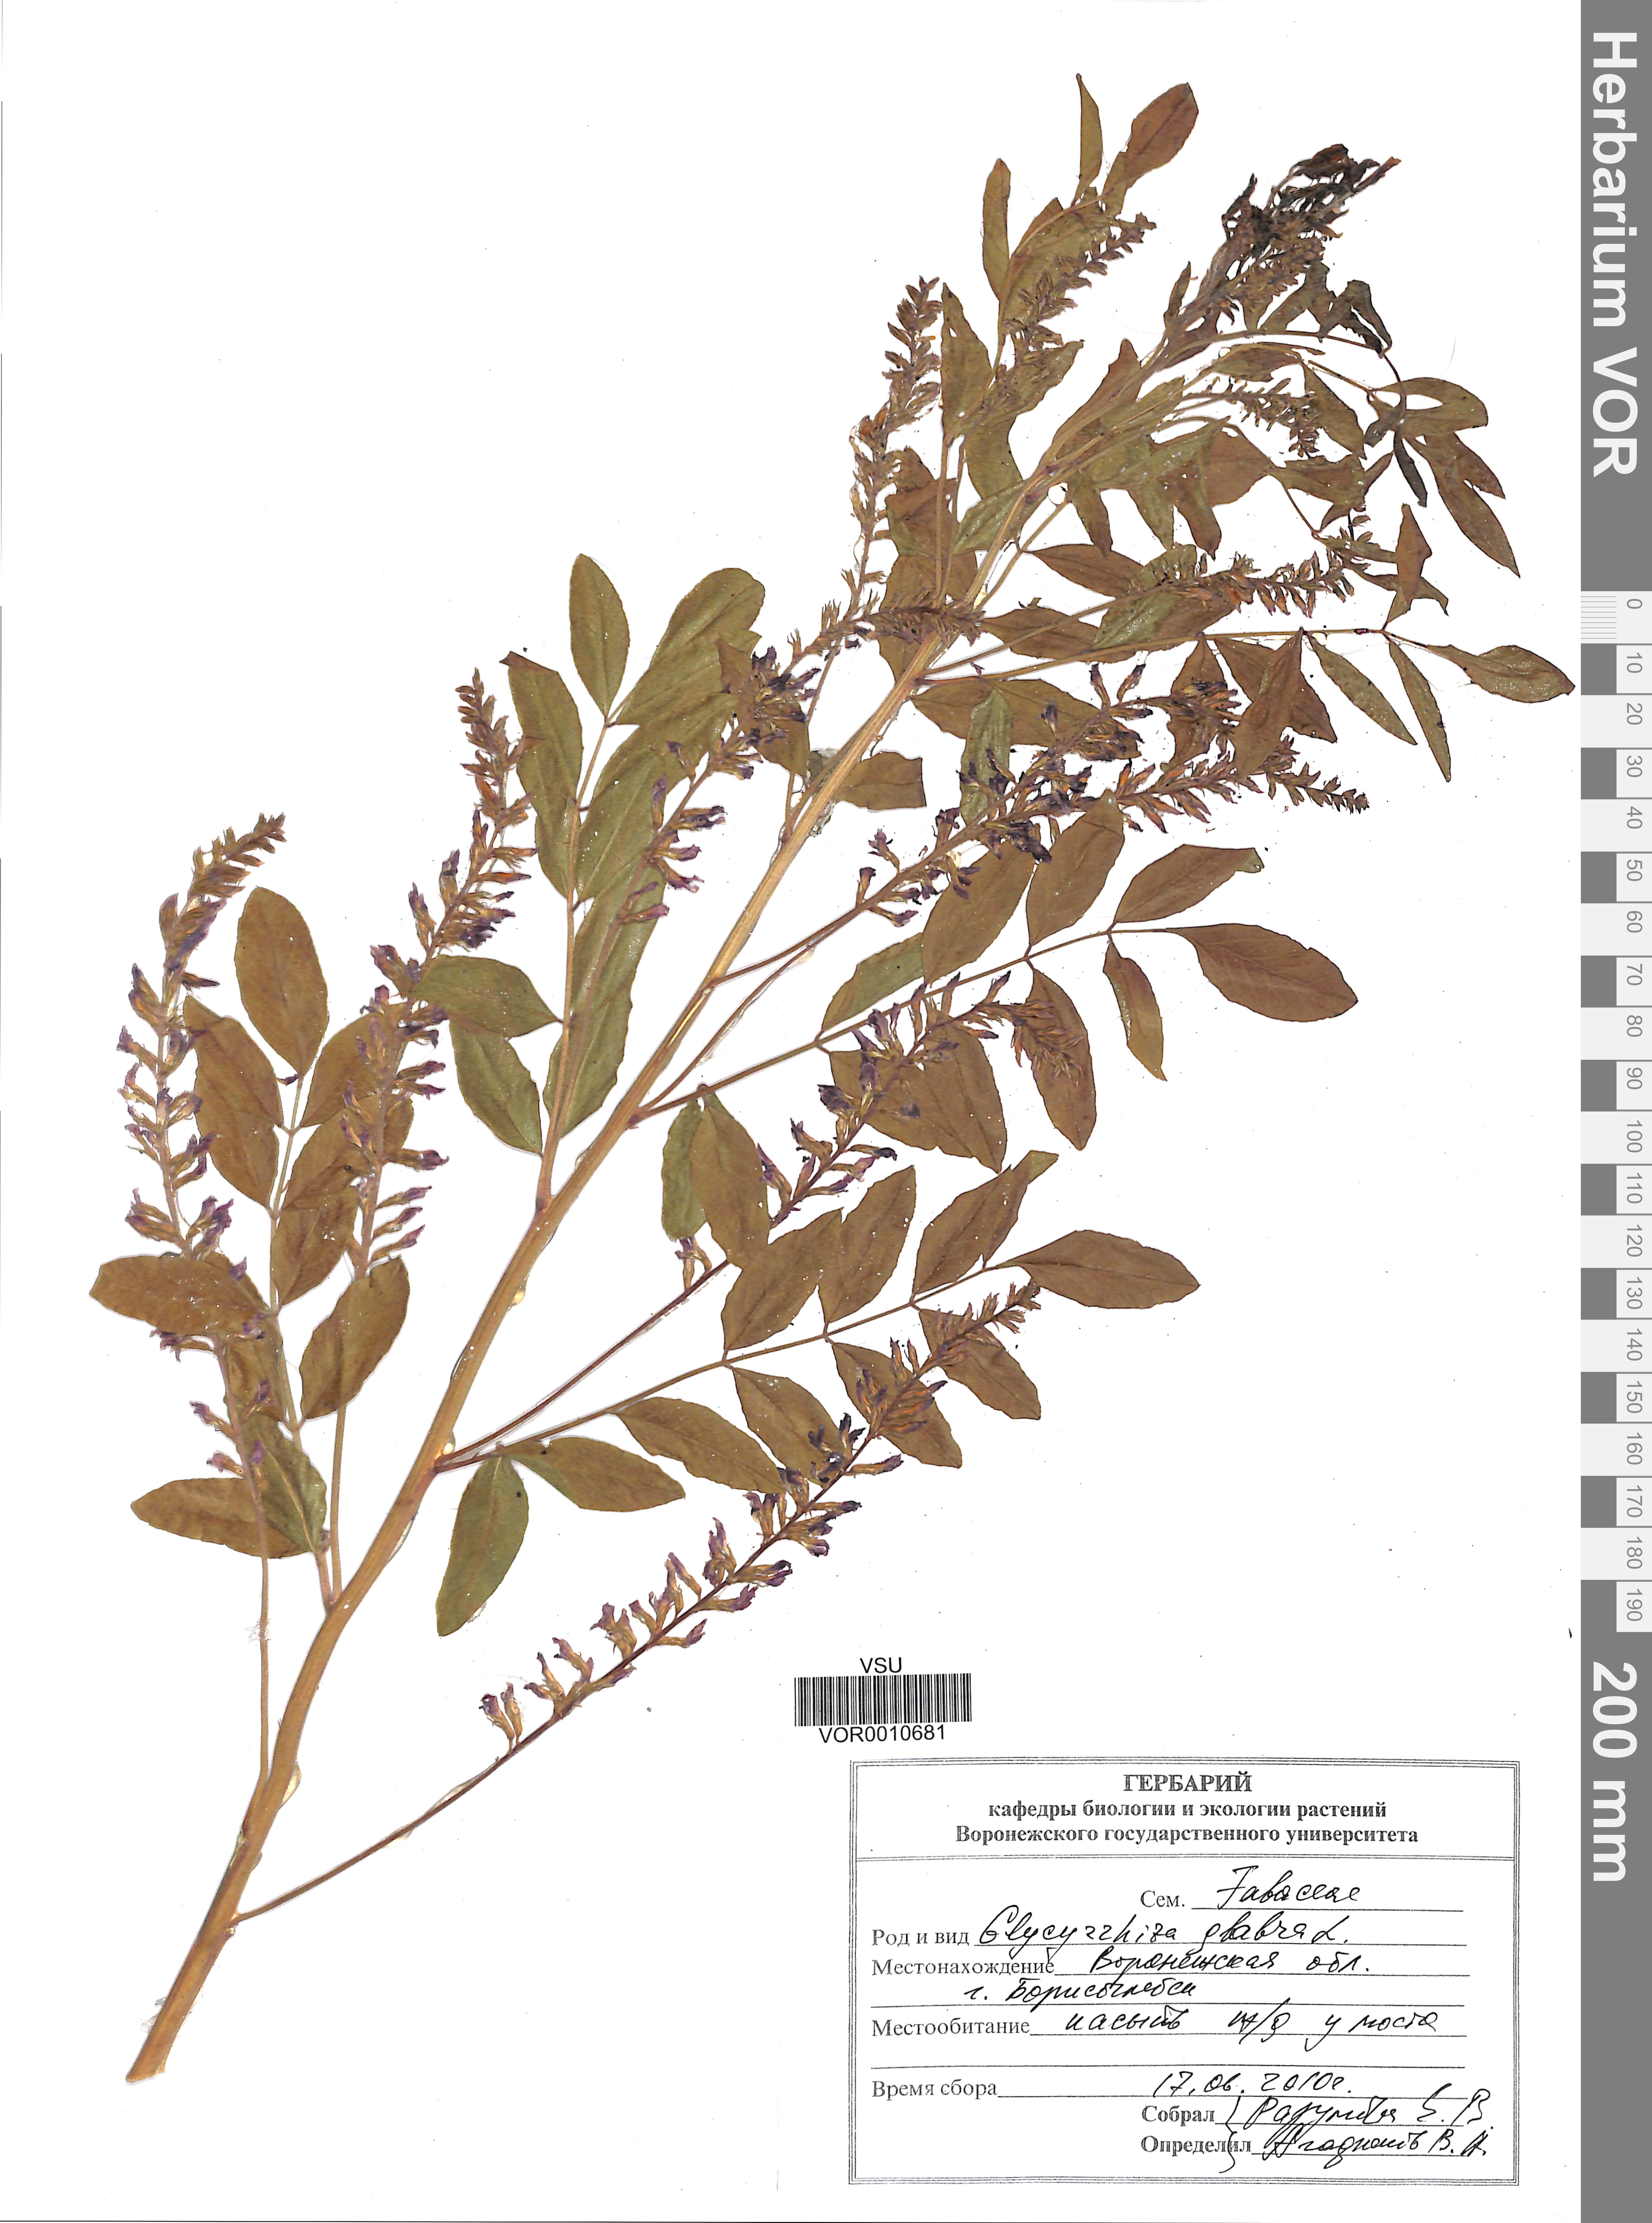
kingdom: Plantae
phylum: Tracheophyta
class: Magnoliopsida
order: Fabales
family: Fabaceae
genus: Glycyrrhiza
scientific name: Glycyrrhiza glabra
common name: Liquorice
